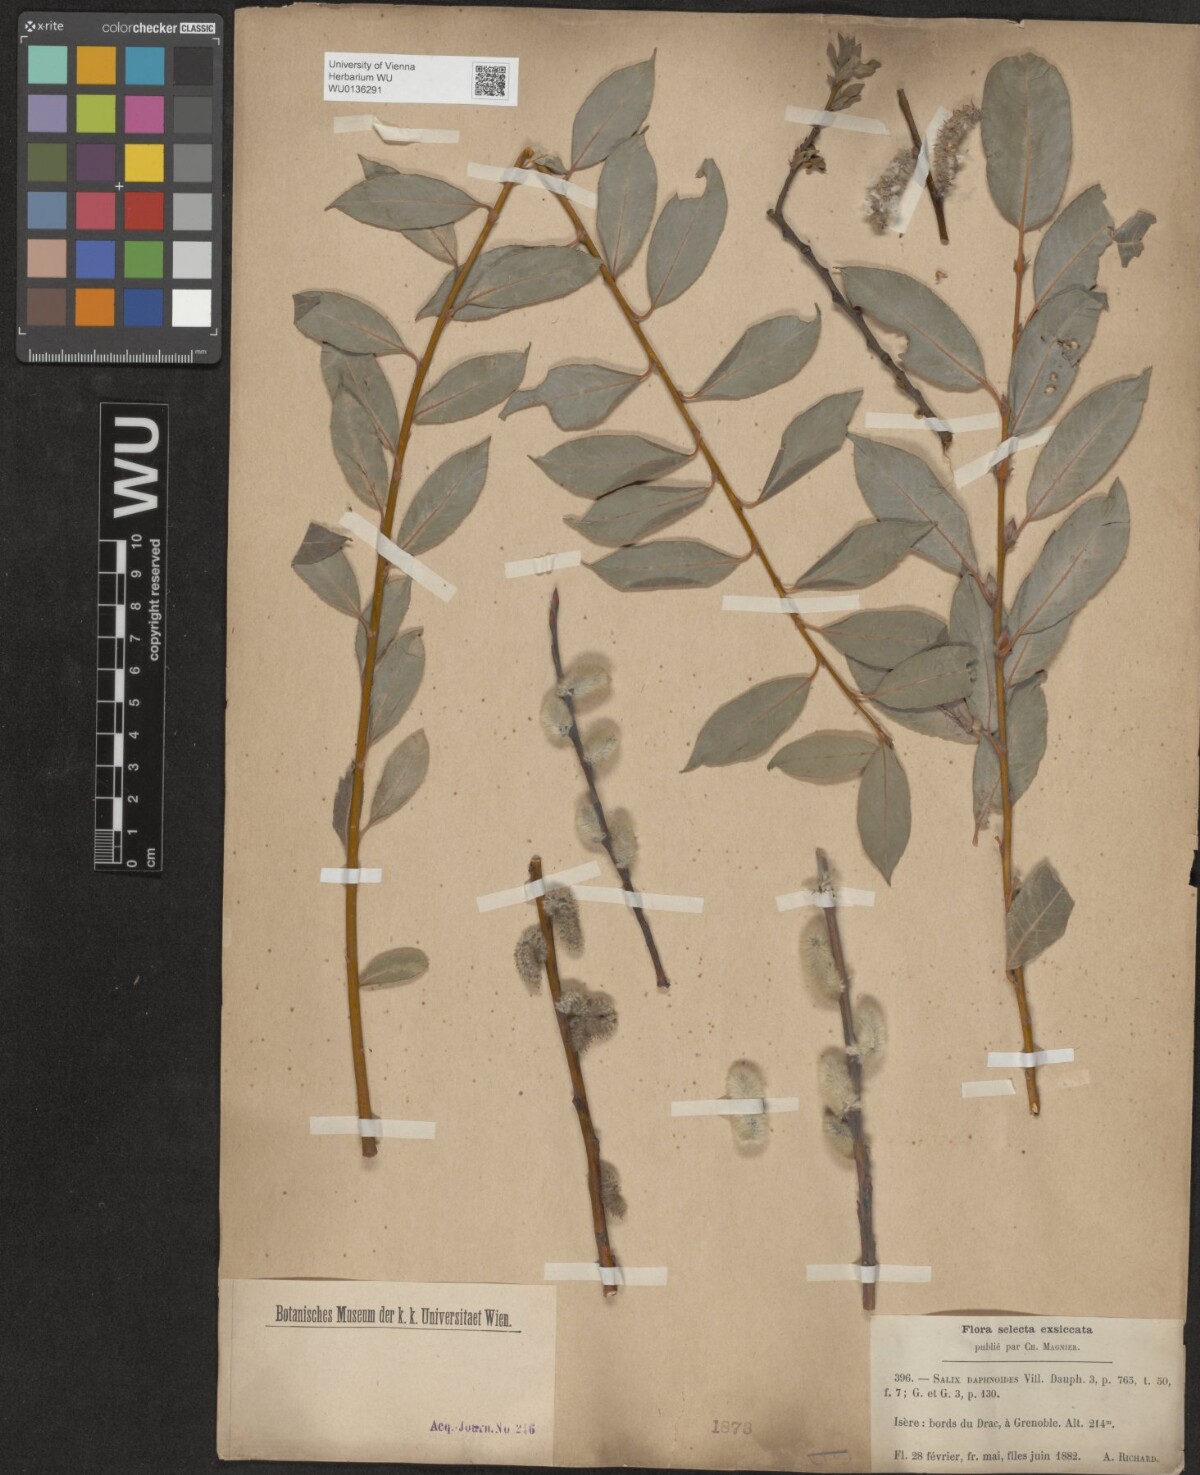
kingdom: Plantae
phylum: Tracheophyta
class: Magnoliopsida
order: Malpighiales
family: Salicaceae
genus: Salix
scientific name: Salix daphnoides
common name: European violet-willow
